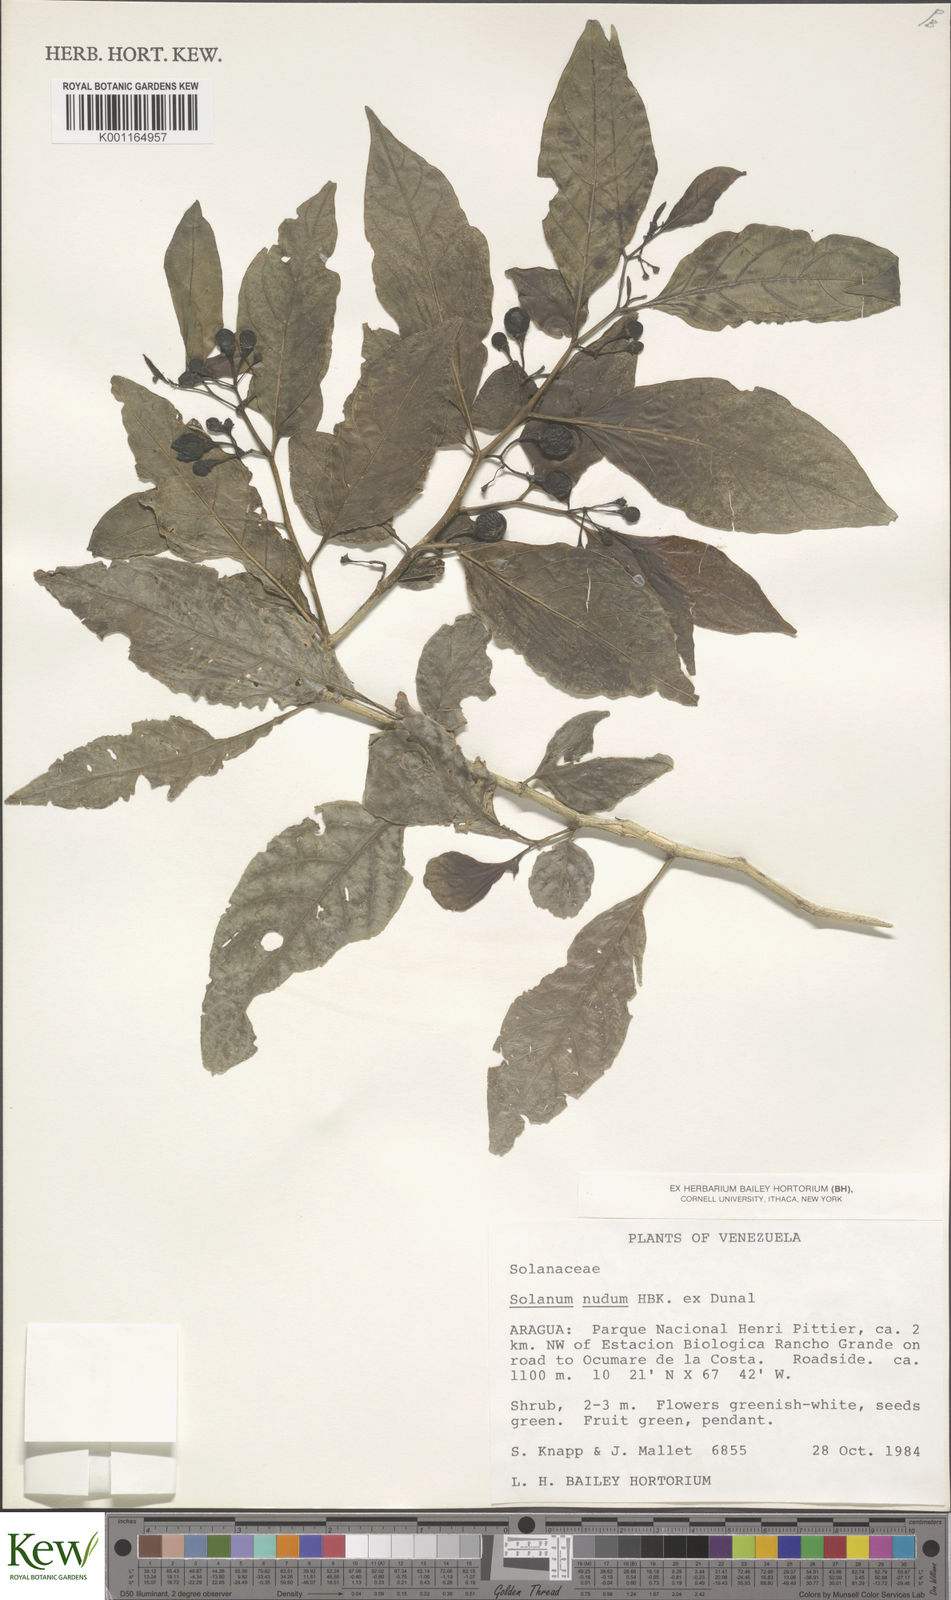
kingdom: Plantae
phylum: Tracheophyta
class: Magnoliopsida
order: Solanales
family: Solanaceae
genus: Solanum
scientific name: Solanum nudum
